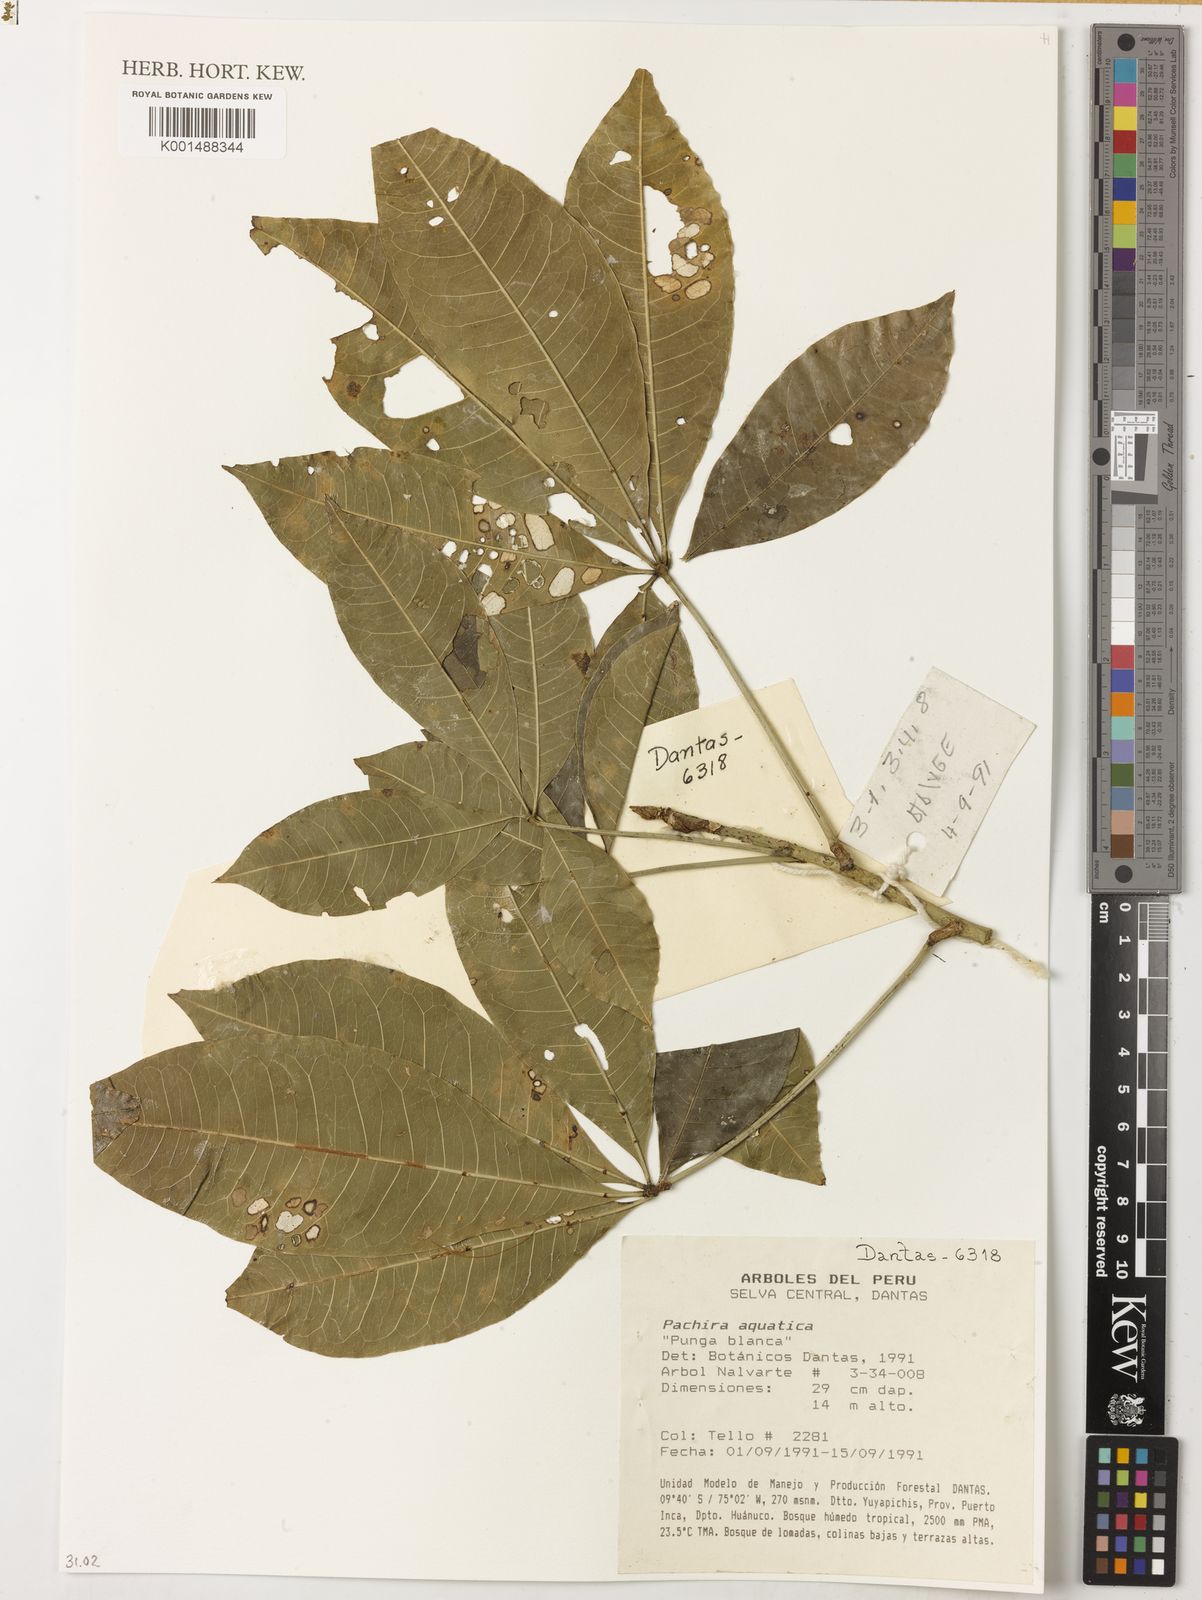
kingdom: Plantae
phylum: Tracheophyta
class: Magnoliopsida
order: Malvales
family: Malvaceae
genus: Pachira
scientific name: Pachira punga-schunkei
